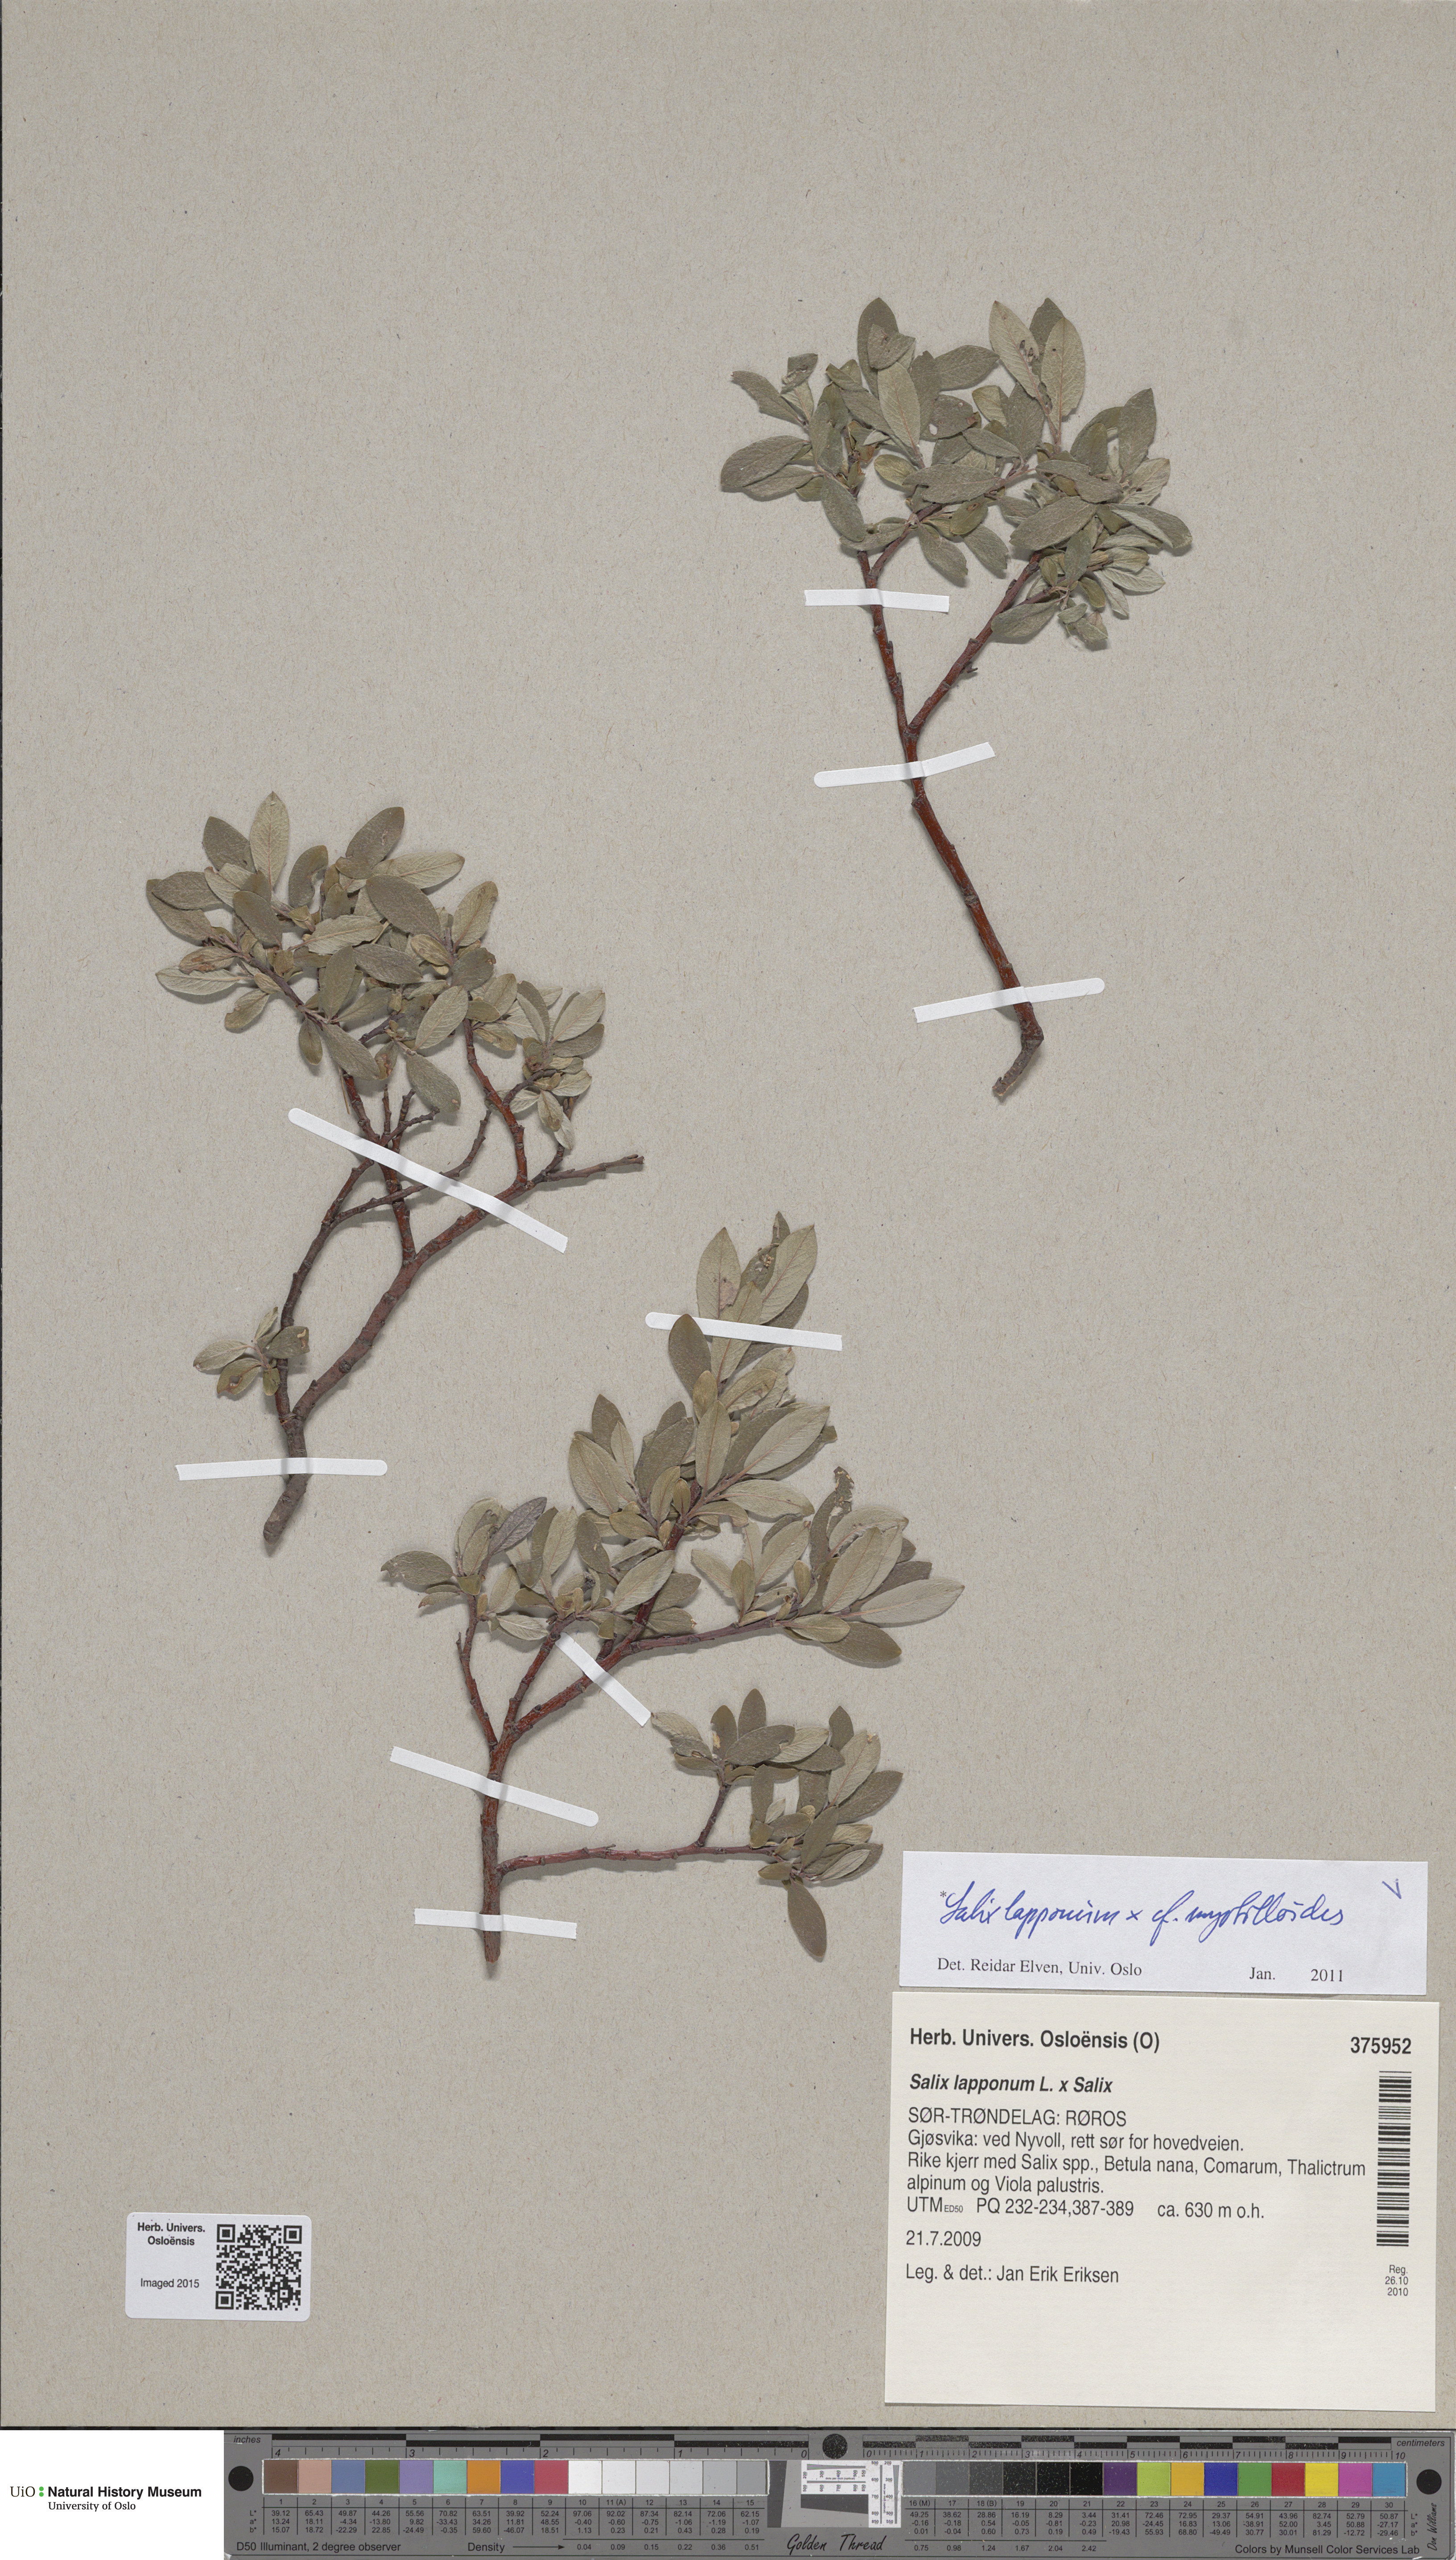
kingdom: Plantae
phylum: Tracheophyta
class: Magnoliopsida
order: Malpighiales
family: Salicaceae
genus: Salix
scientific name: Salix
